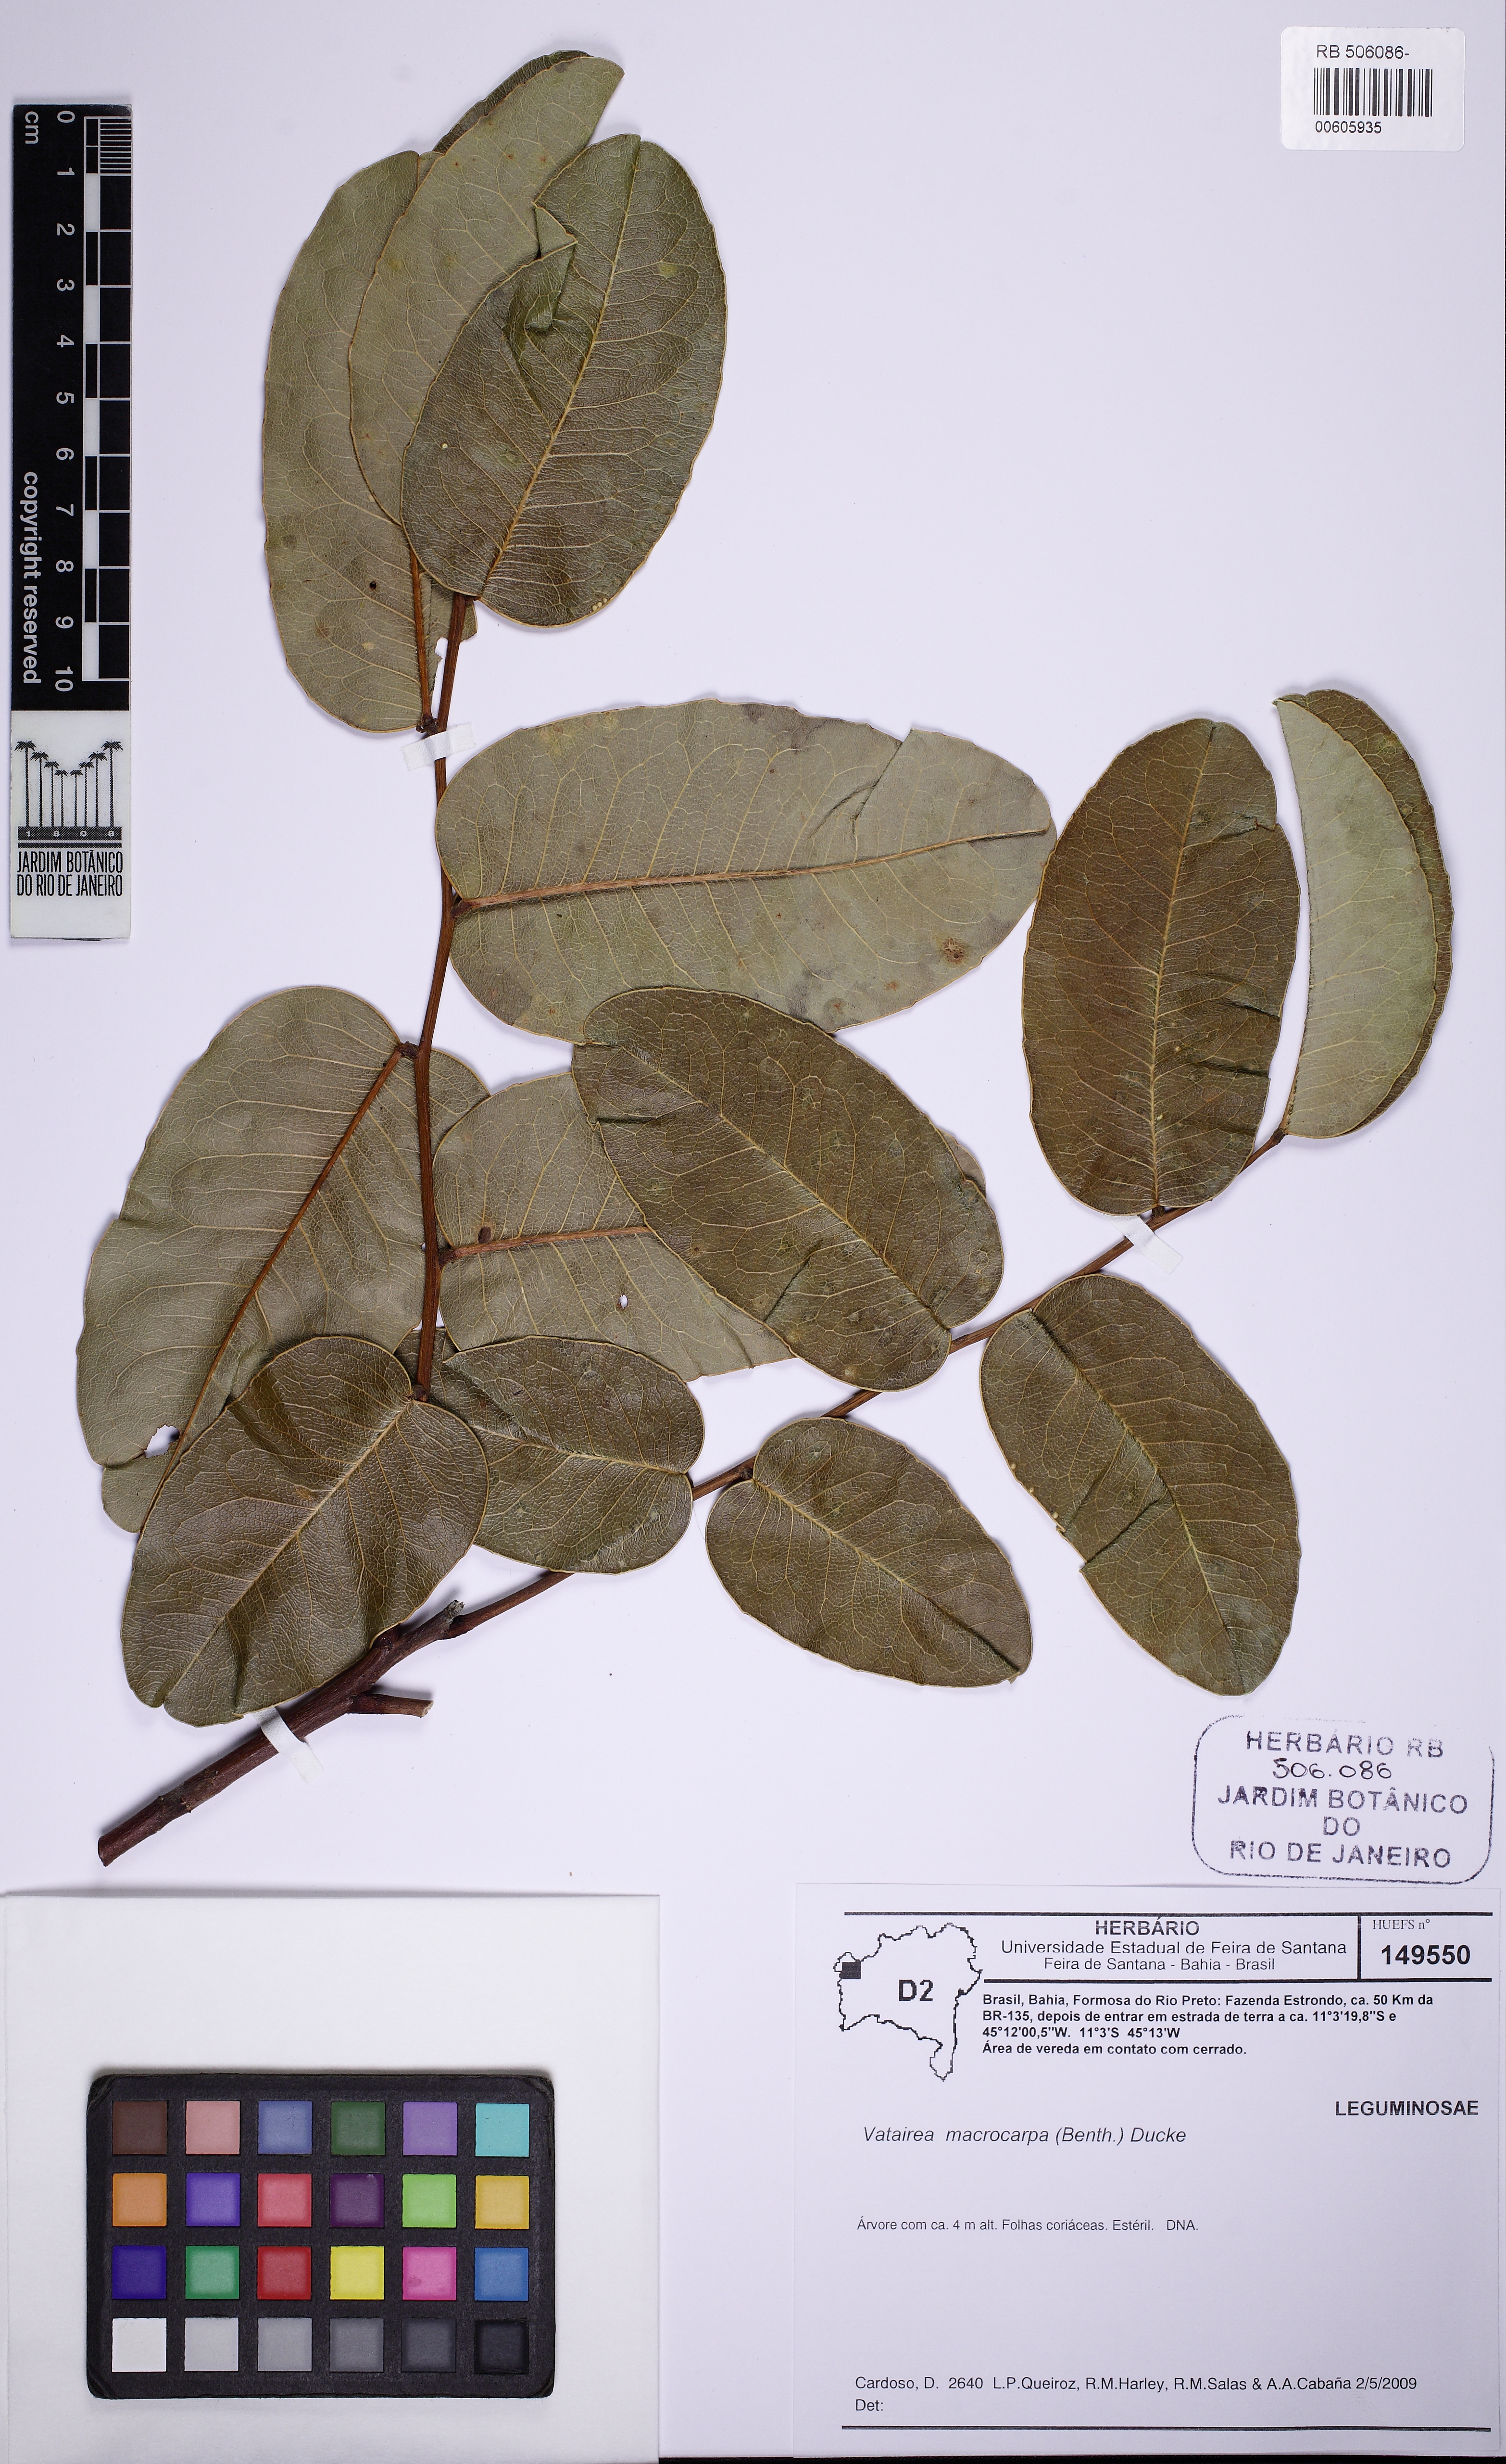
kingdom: Plantae
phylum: Tracheophyta
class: Magnoliopsida
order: Fabales
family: Fabaceae
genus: Vatairea
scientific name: Vatairea macrocarpa
